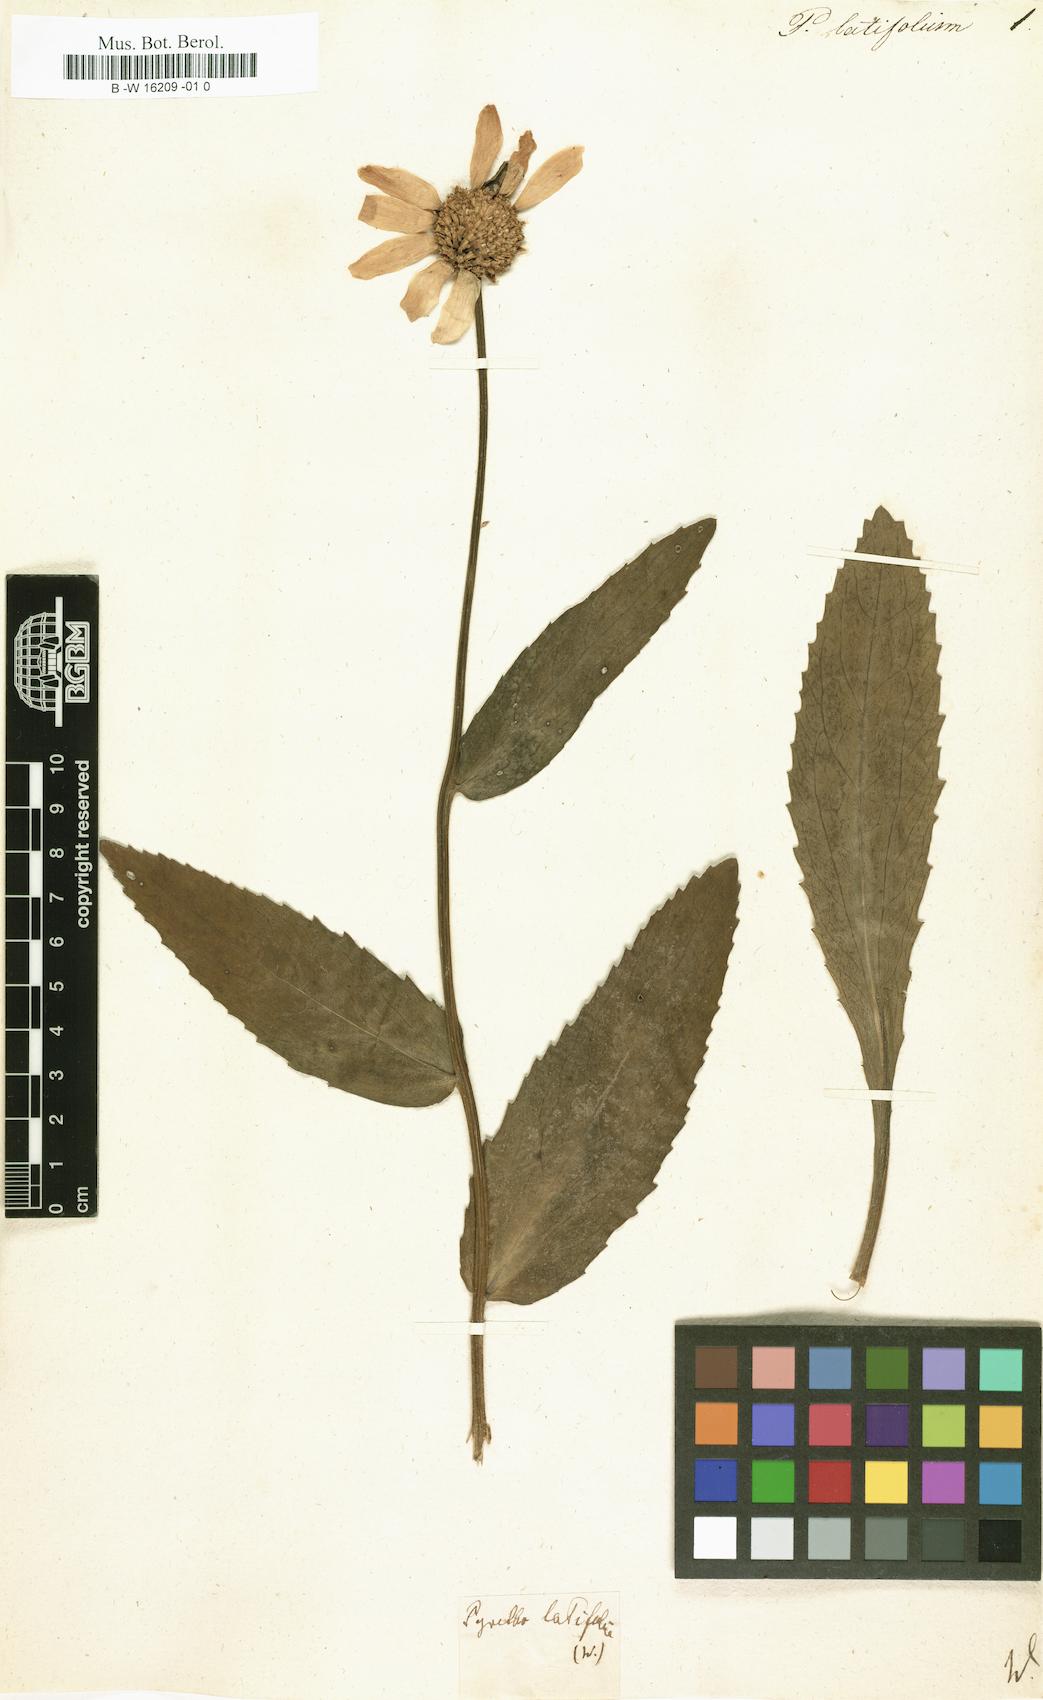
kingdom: Plantae
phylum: Tracheophyta
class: Magnoliopsida
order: Asterales
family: Asteraceae
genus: Leucanthemum
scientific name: Leucanthemum lacustre
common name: Portuguese daisy
